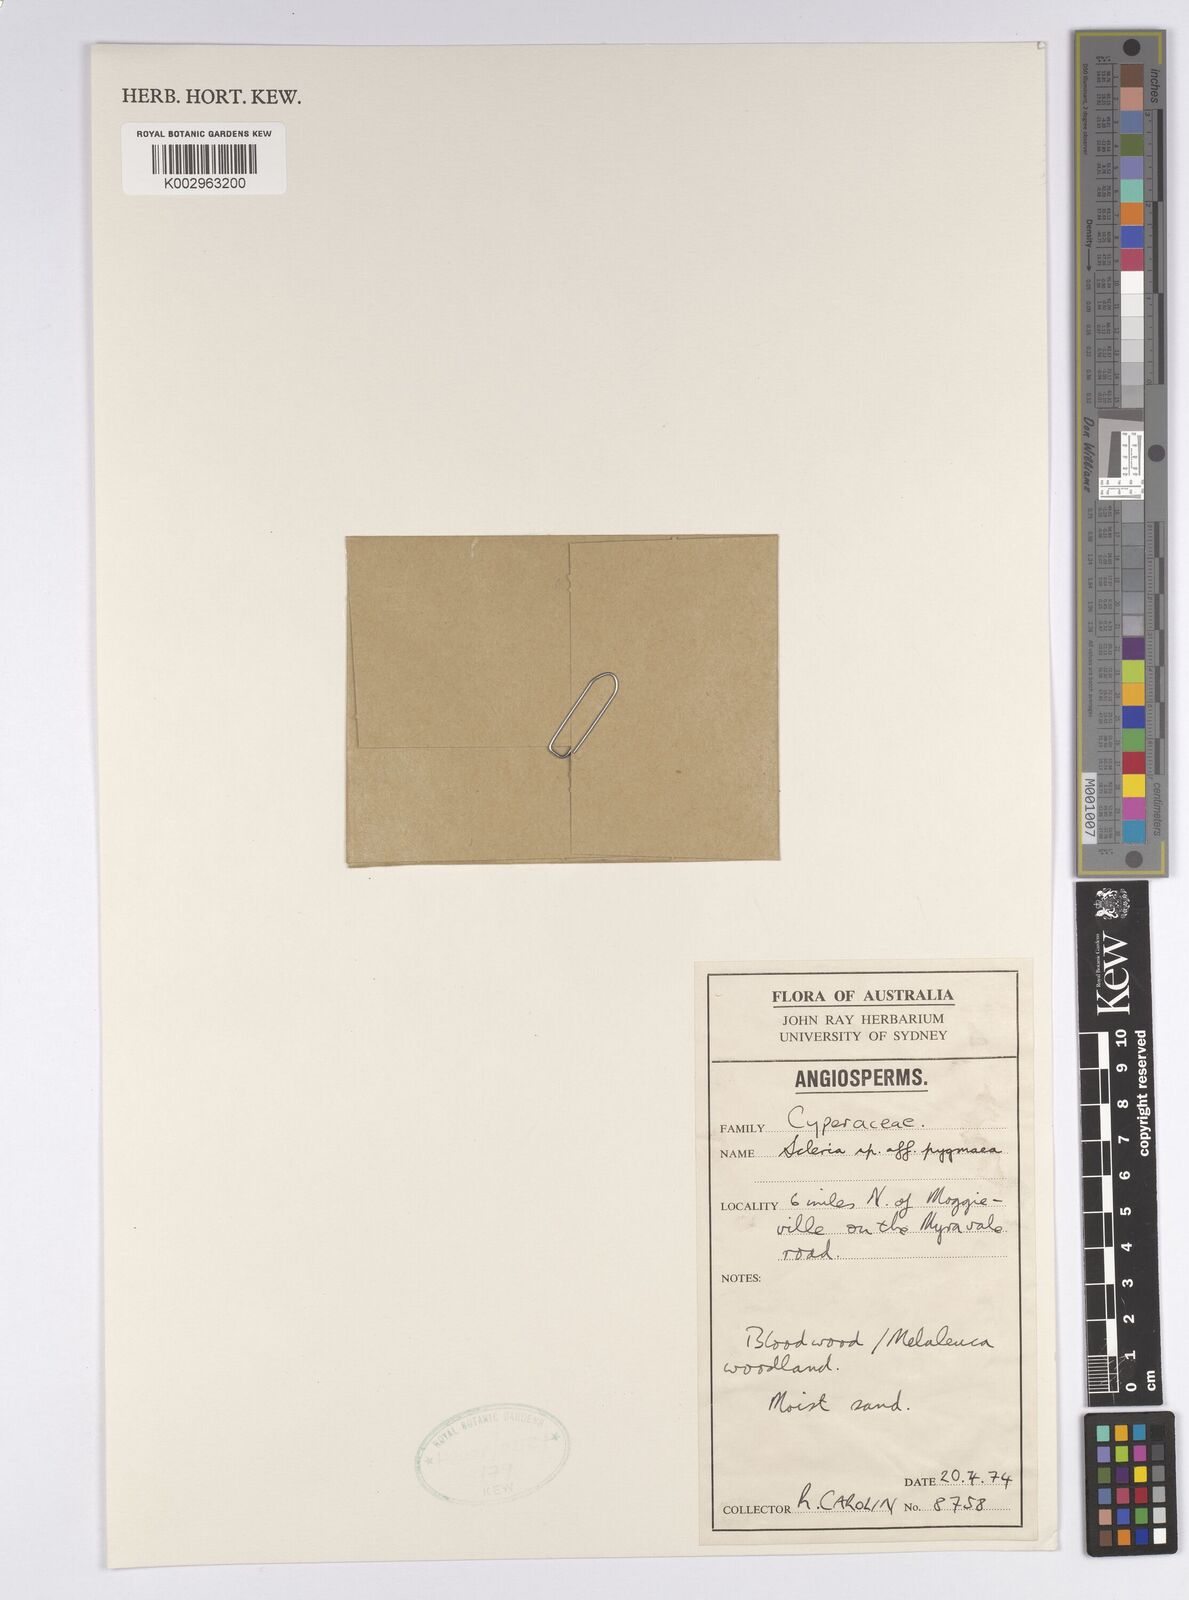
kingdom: Plantae
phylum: Tracheophyta
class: Liliopsida
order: Poales
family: Cyperaceae
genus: Diplacrum
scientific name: Diplacrum pygmaeum
